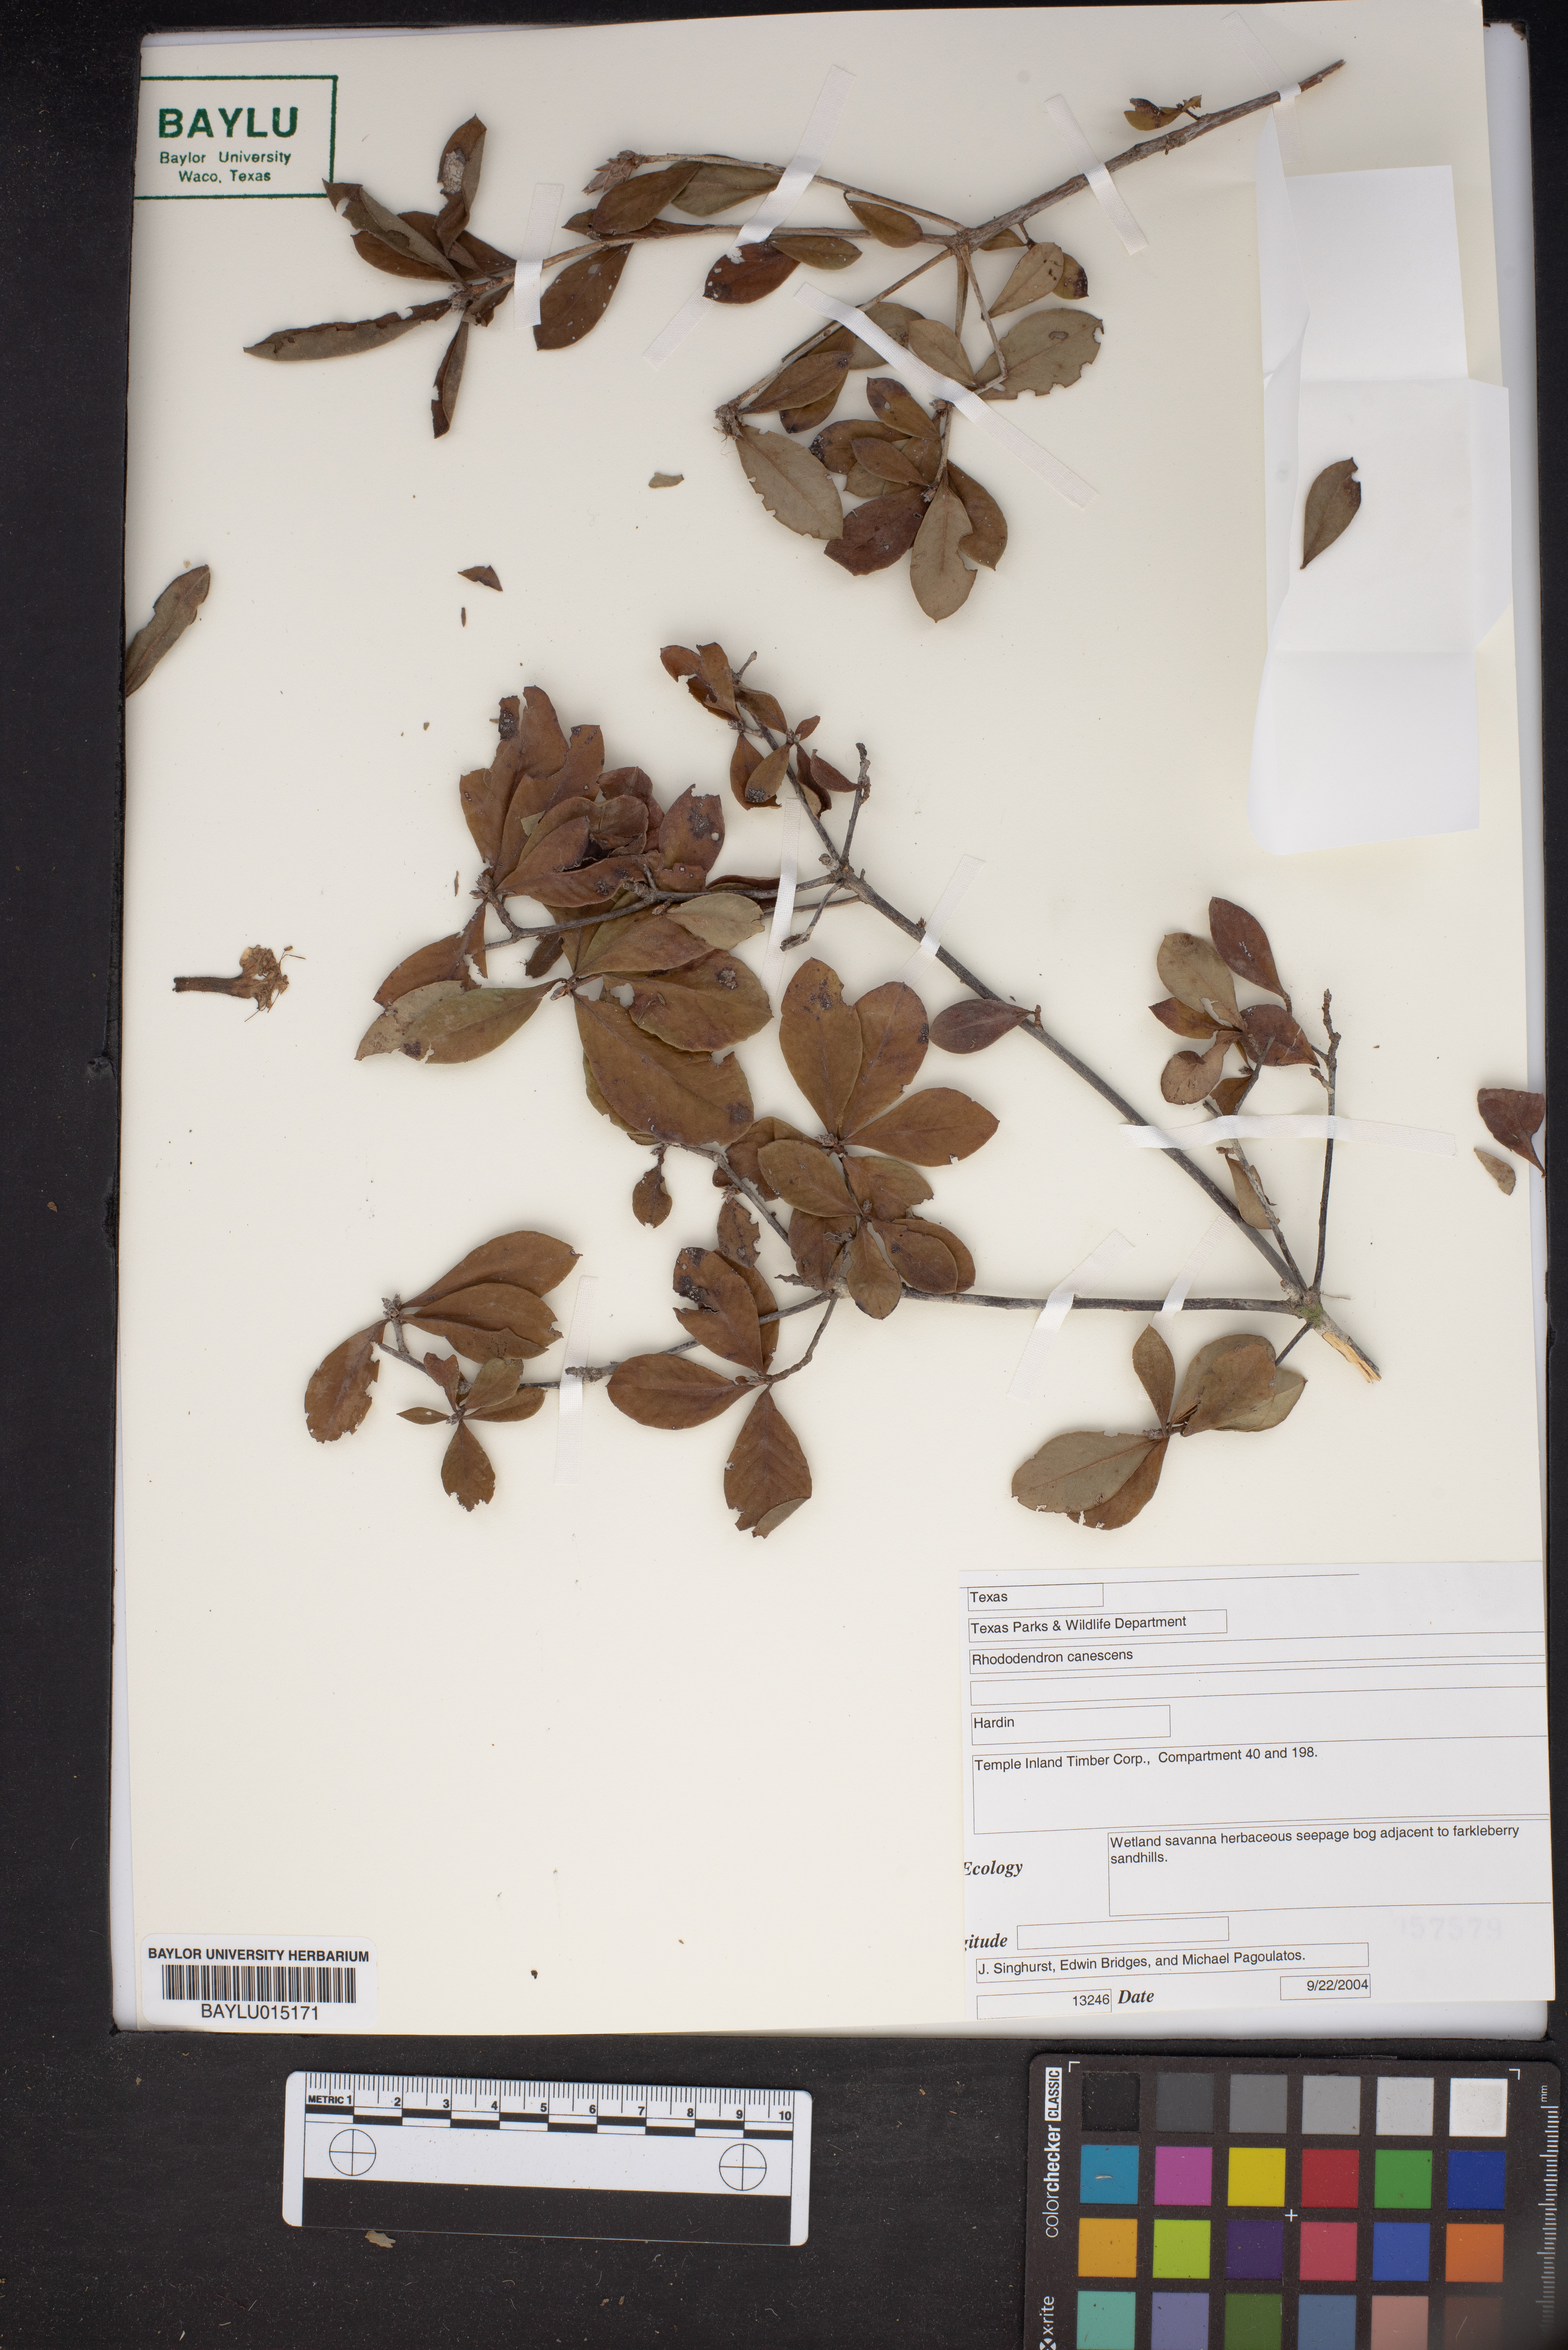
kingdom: Plantae
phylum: Tracheophyta
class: Magnoliopsida
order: Ericales
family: Ericaceae
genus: Rhododendron
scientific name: Rhododendron canescens
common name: Mountain azalea
